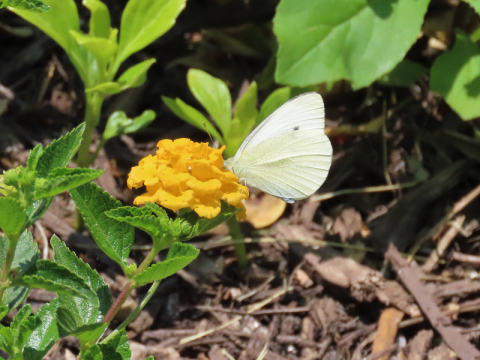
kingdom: Animalia
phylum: Arthropoda
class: Insecta
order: Lepidoptera
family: Pieridae
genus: Pieris
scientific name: Pieris rapae
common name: Cabbage White
